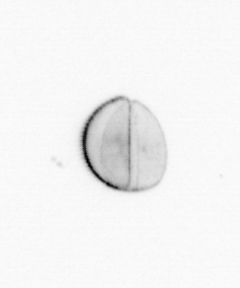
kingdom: Chromista
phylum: Ochrophyta
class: Bacillariophyceae
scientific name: Bacillariophyceae
